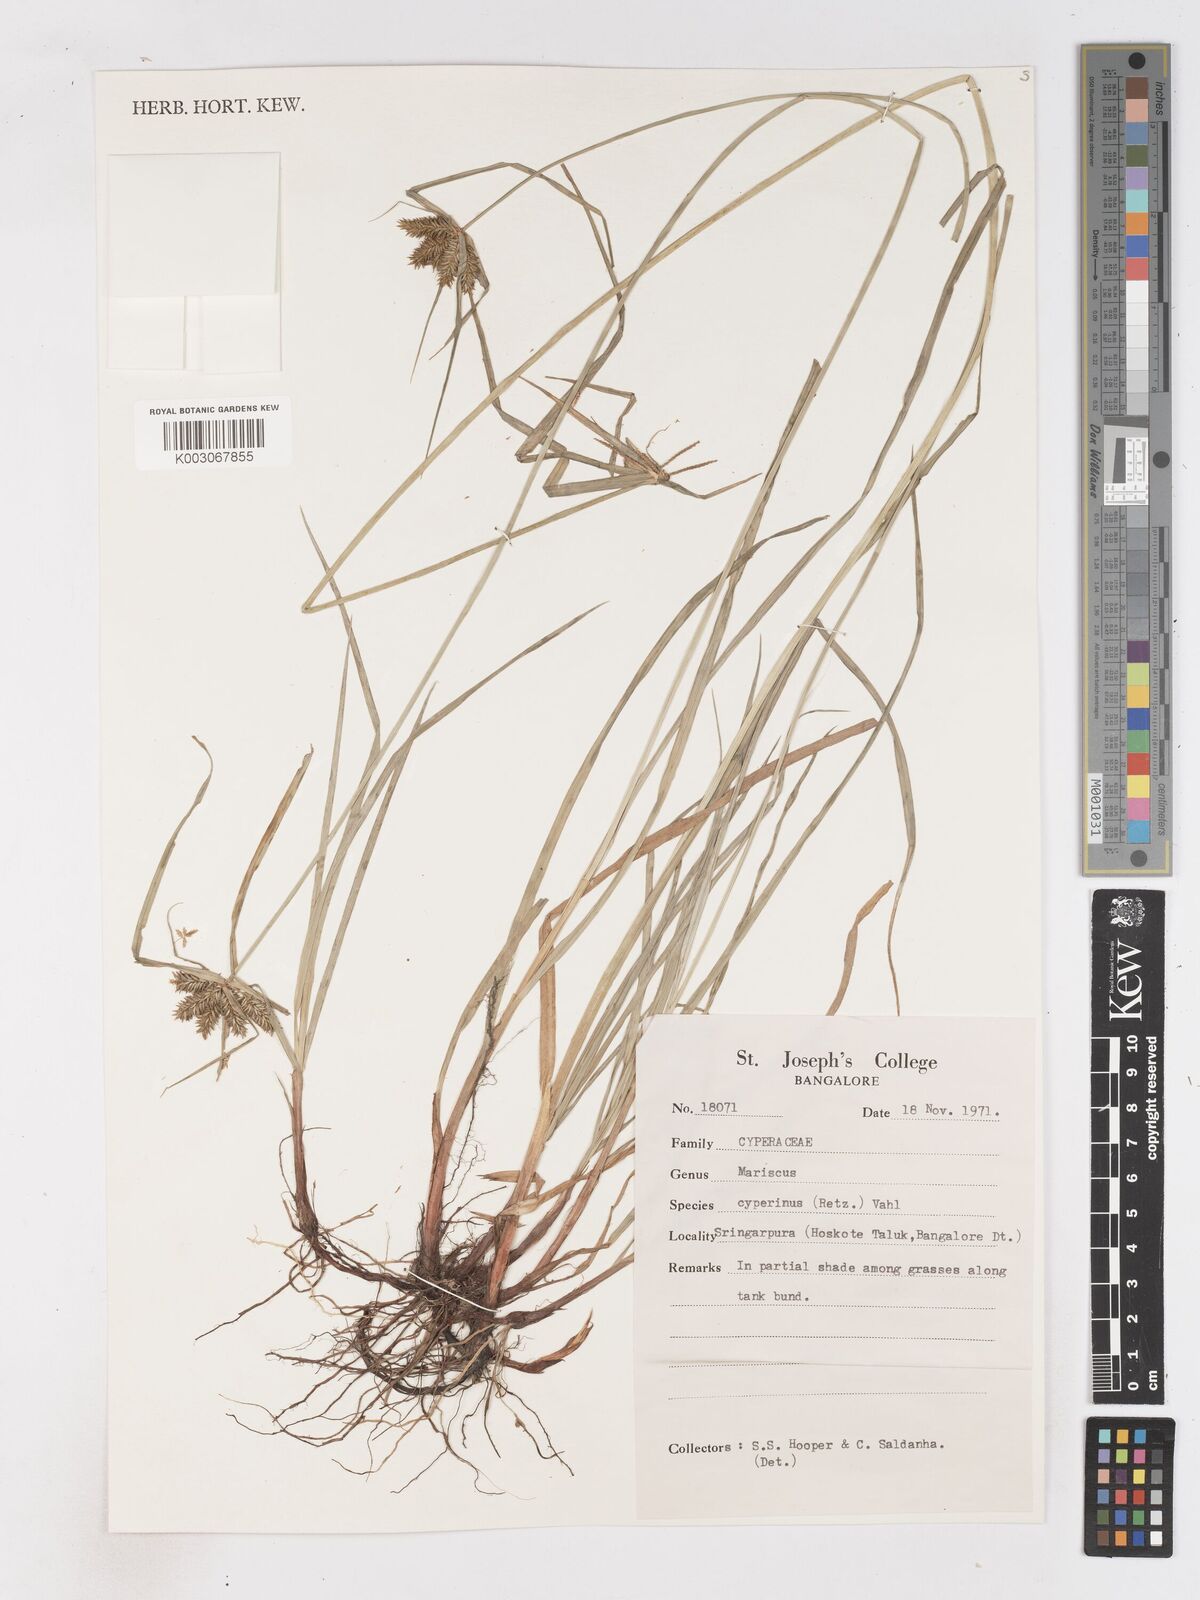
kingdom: Plantae
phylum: Tracheophyta
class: Liliopsida
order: Poales
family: Cyperaceae
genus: Cyperus
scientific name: Cyperus cyperinus
